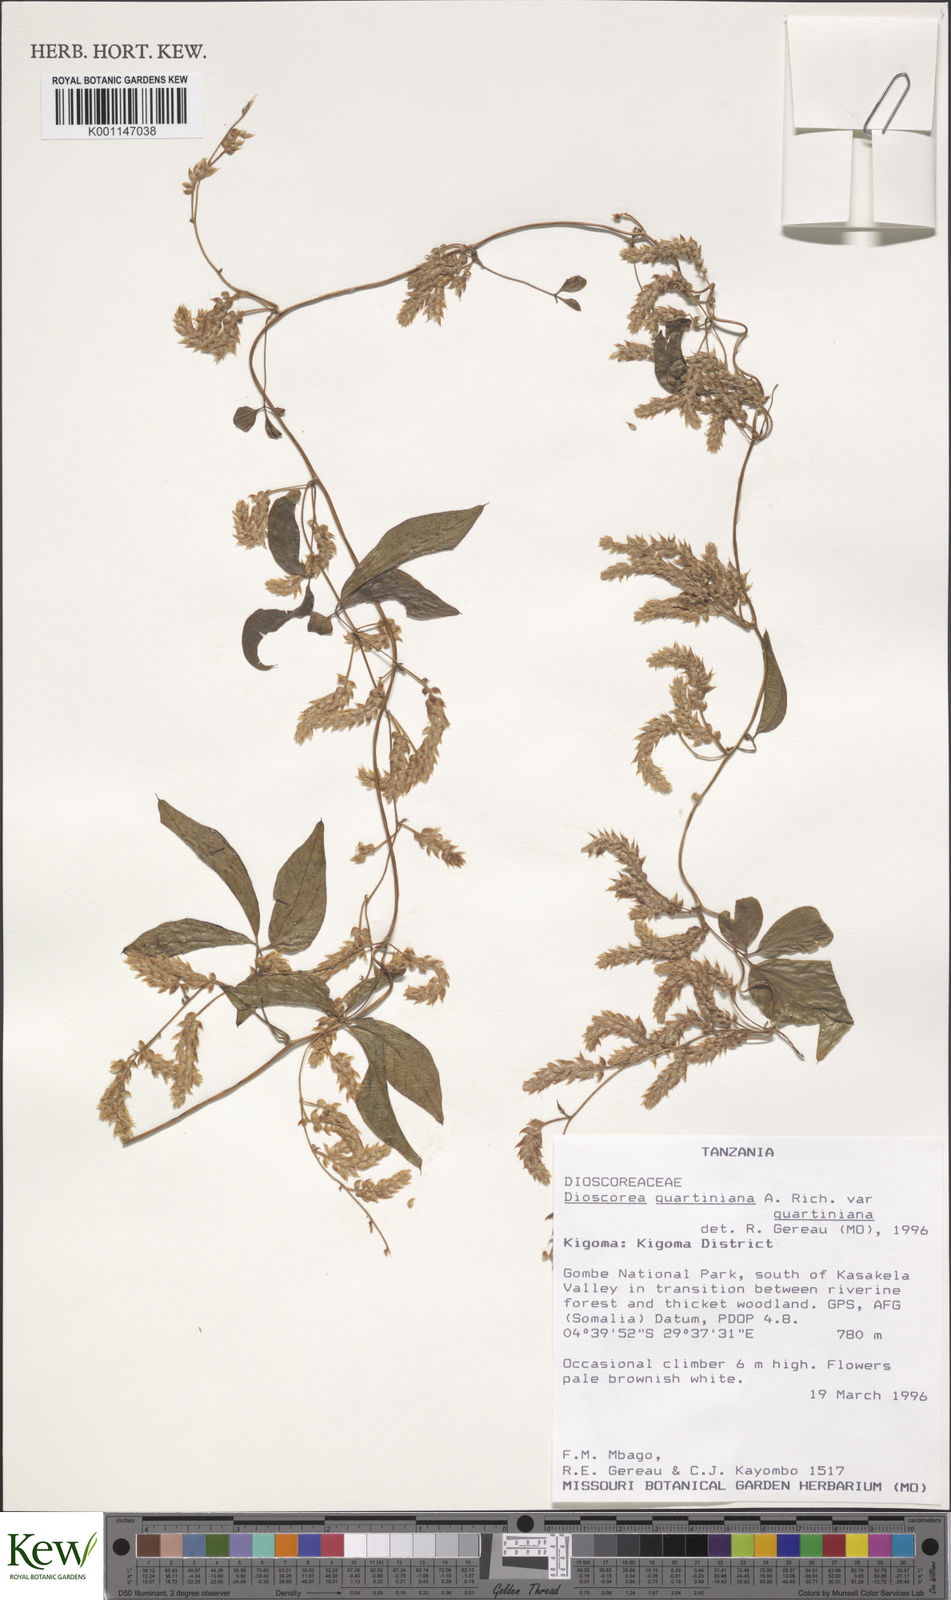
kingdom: Plantae
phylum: Tracheophyta
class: Liliopsida
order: Dioscoreales
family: Dioscoreaceae
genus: Dioscorea
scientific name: Dioscorea quartiniana
